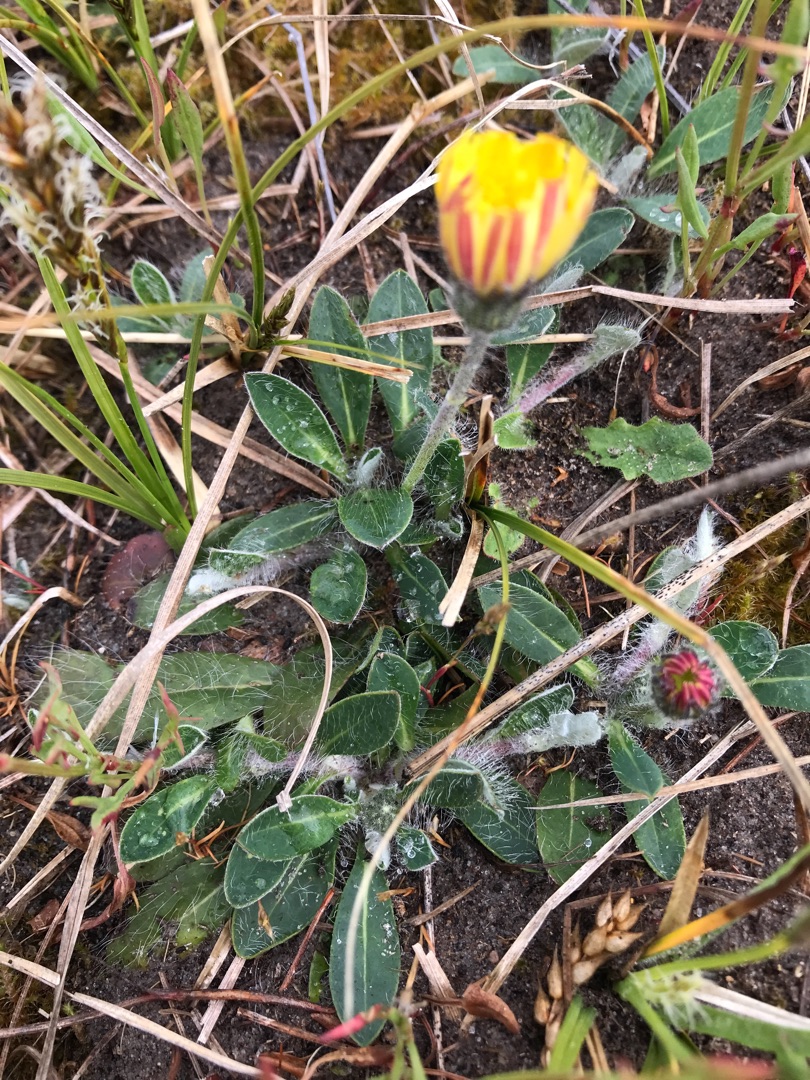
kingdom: Plantae
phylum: Tracheophyta
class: Magnoliopsida
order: Asterales
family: Asteraceae
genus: Pilosella
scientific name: Pilosella officinarum
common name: Håret høgeurt
